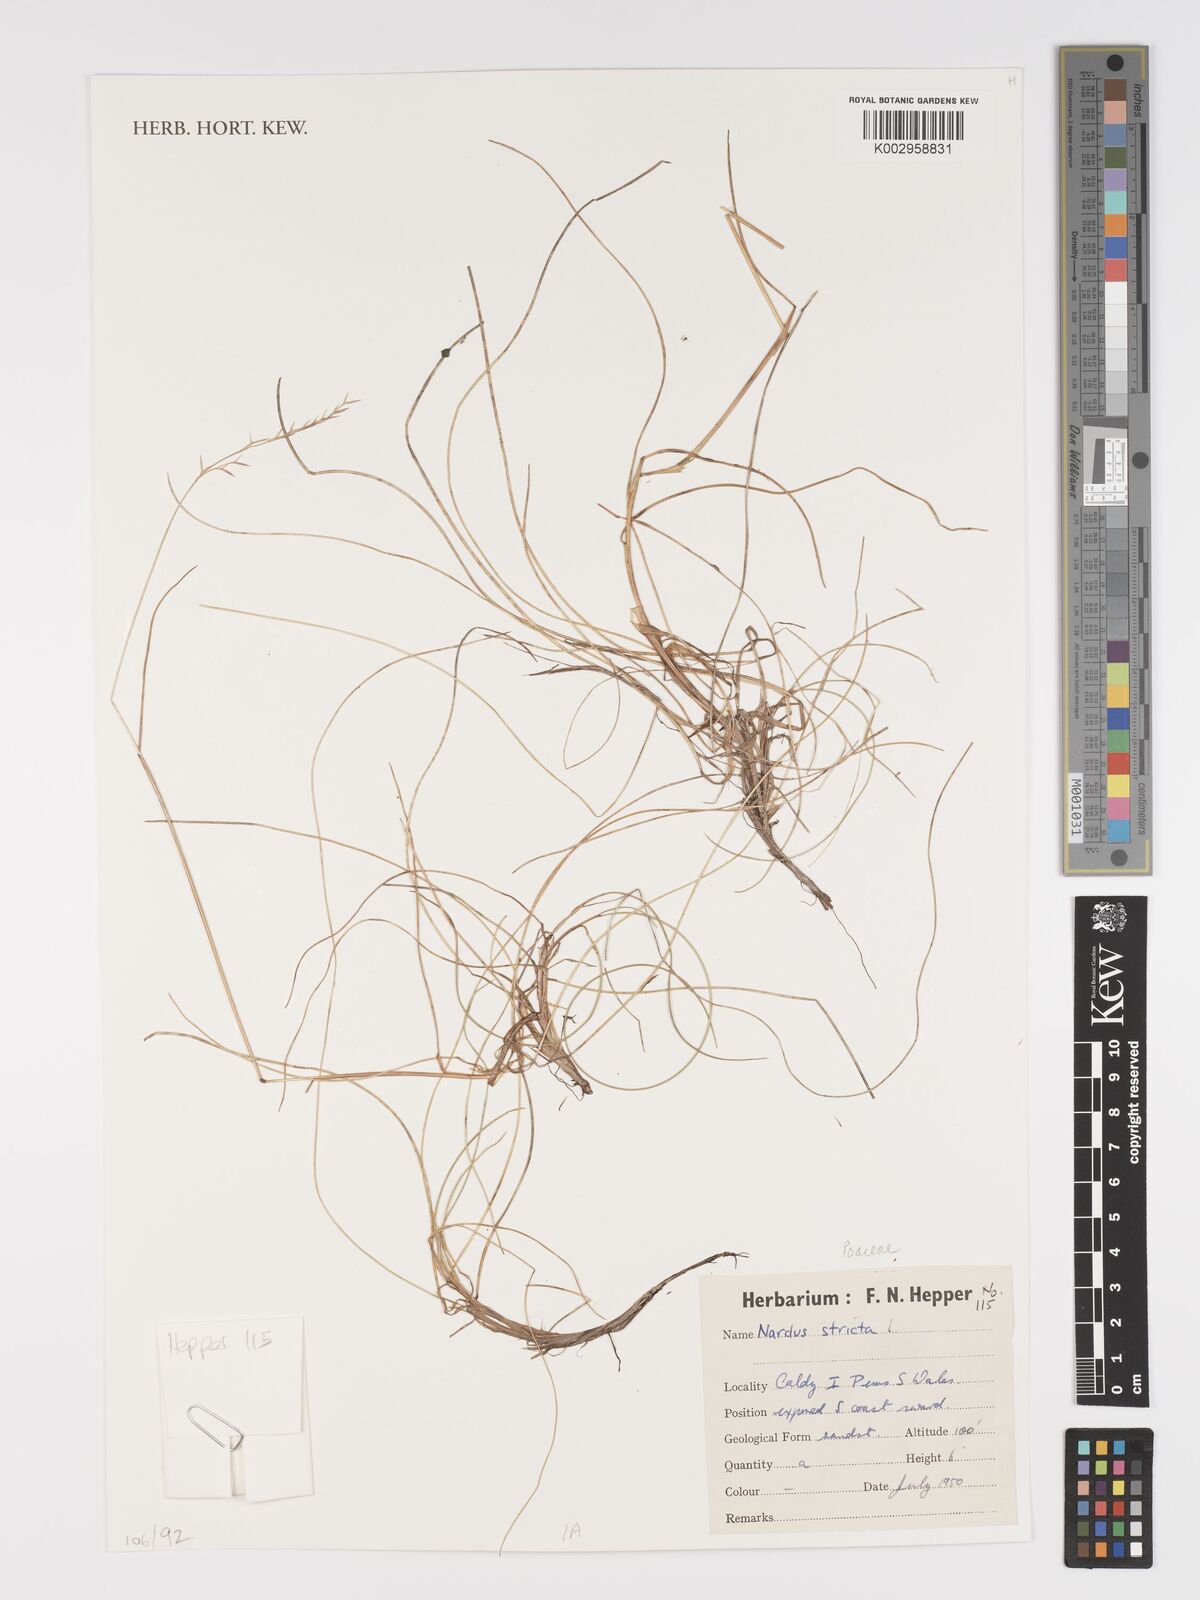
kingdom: Plantae
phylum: Tracheophyta
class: Liliopsida
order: Poales
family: Poaceae
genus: Nardus
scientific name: Nardus stricta
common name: Mat-grass
